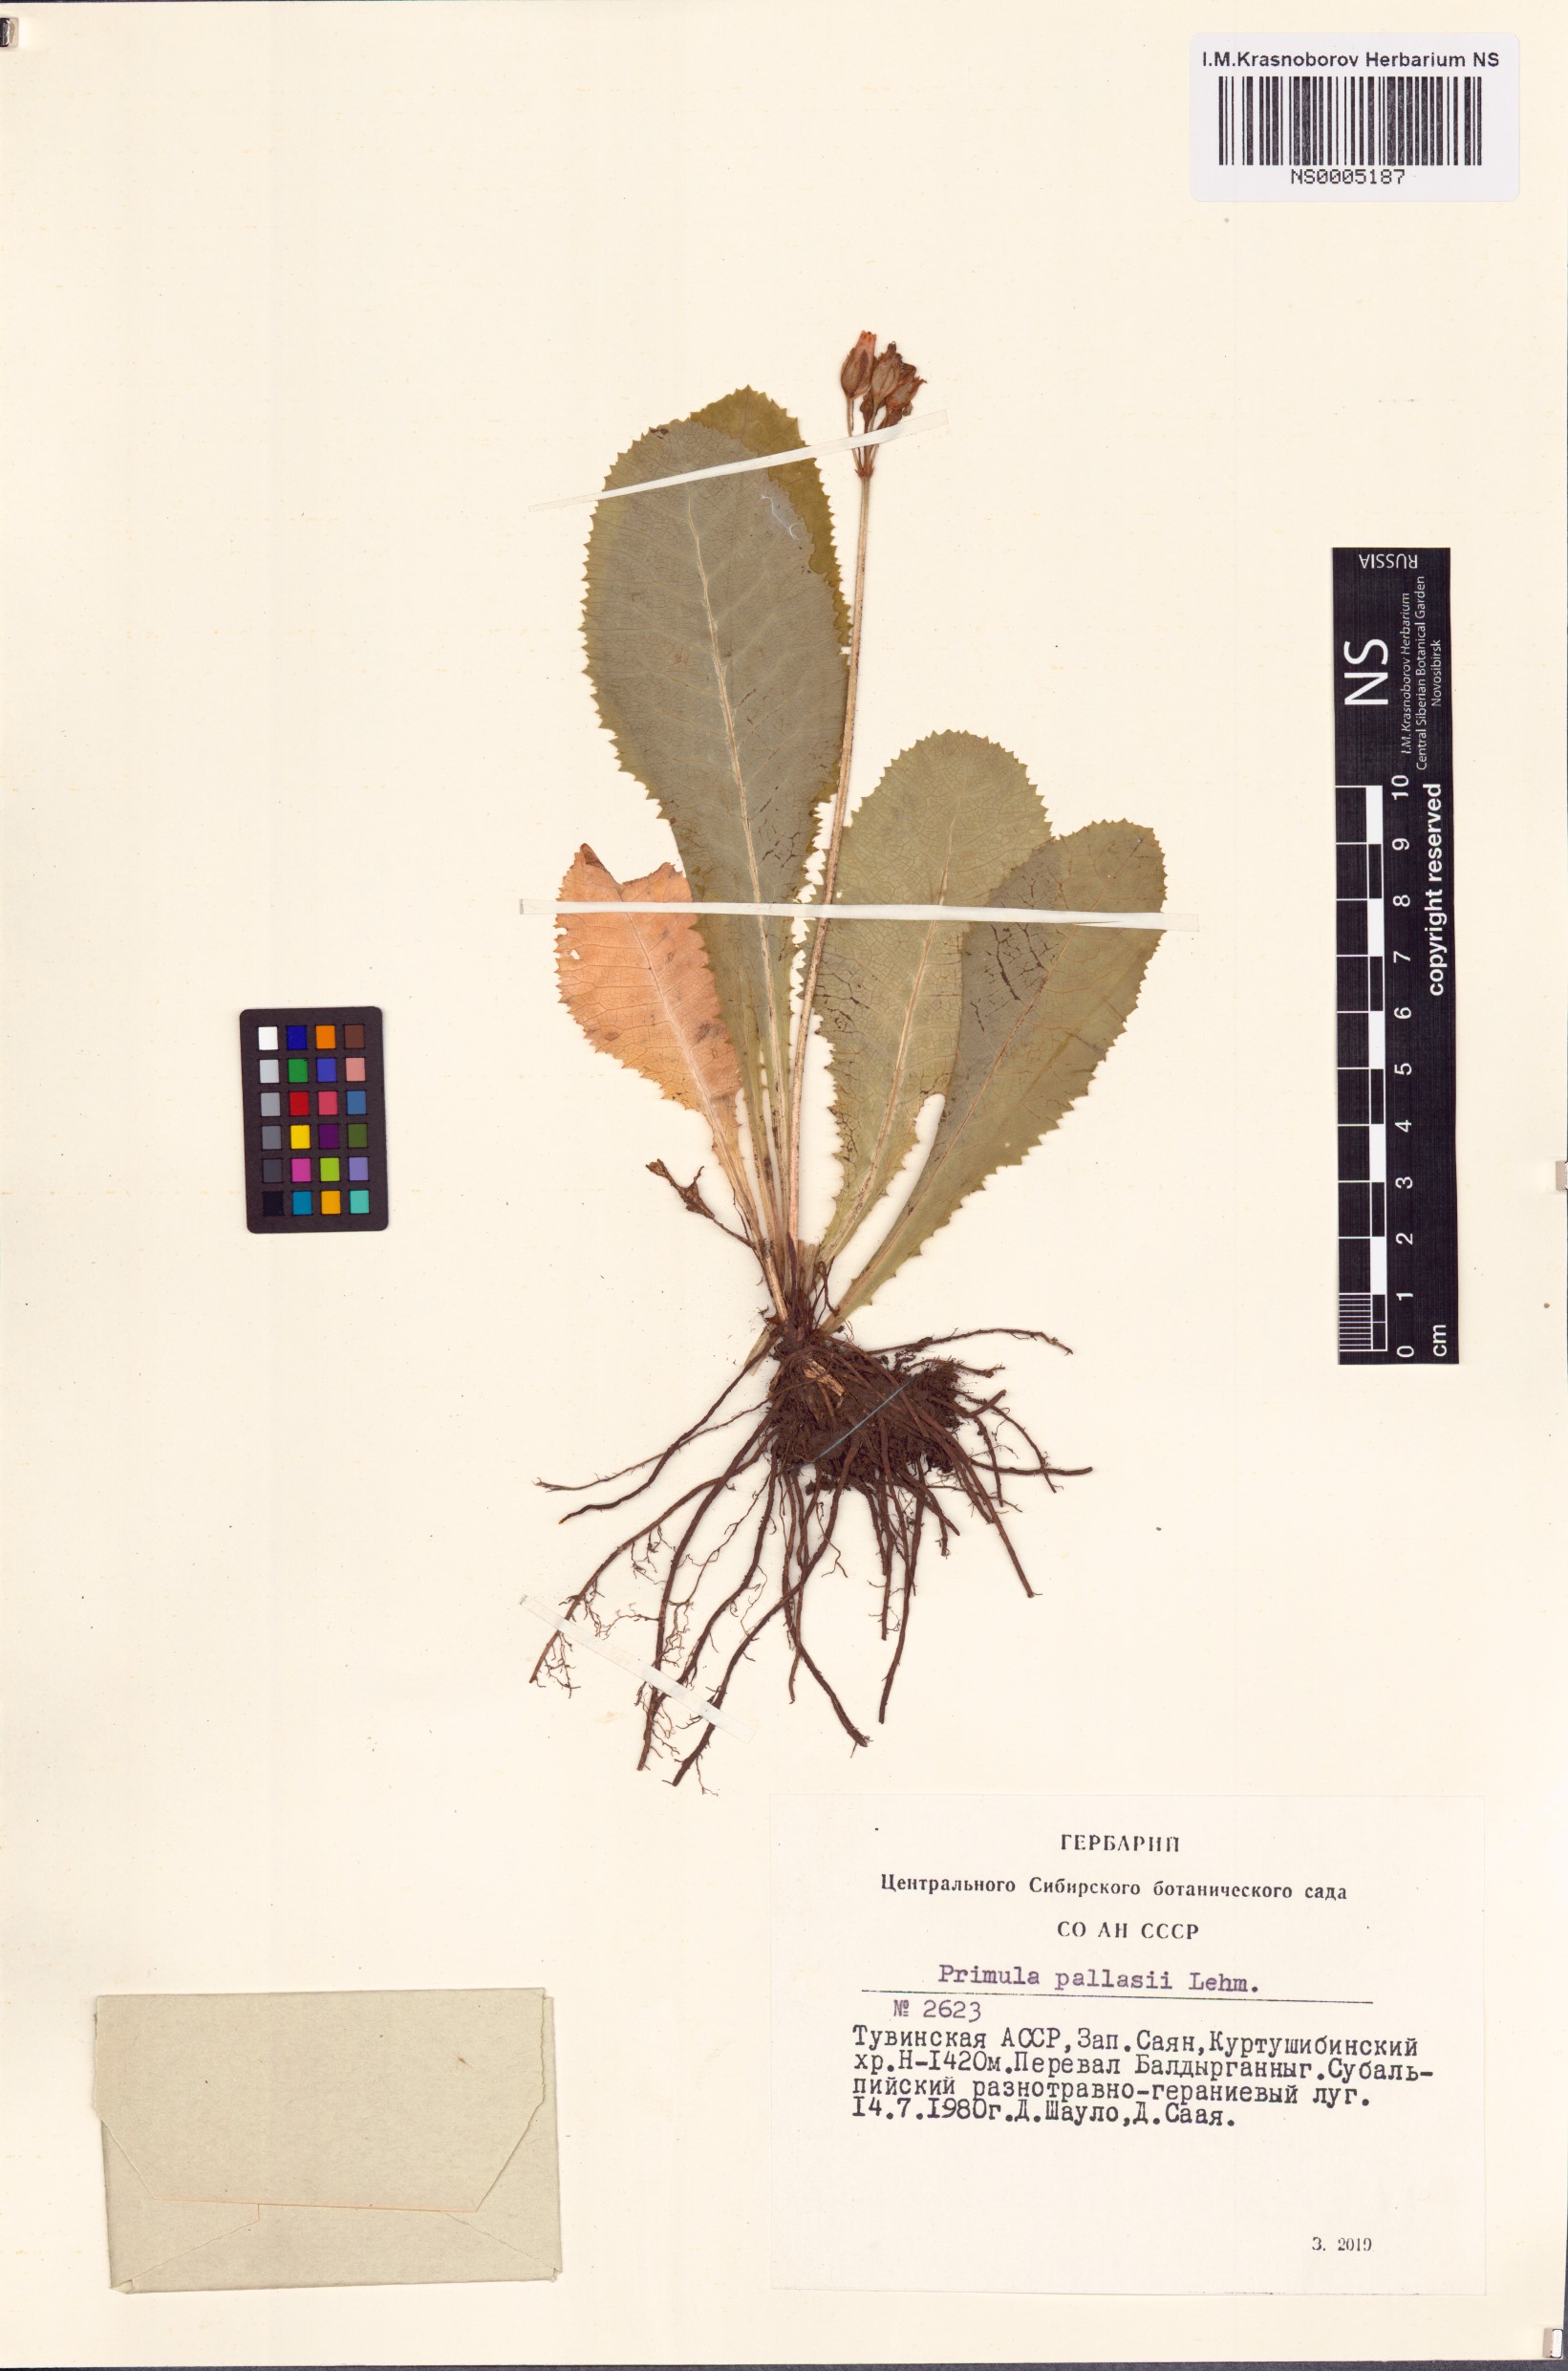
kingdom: Plantae
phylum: Tracheophyta
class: Magnoliopsida
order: Ericales
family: Primulaceae
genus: Primula
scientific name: Primula elatior
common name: Oxlip
